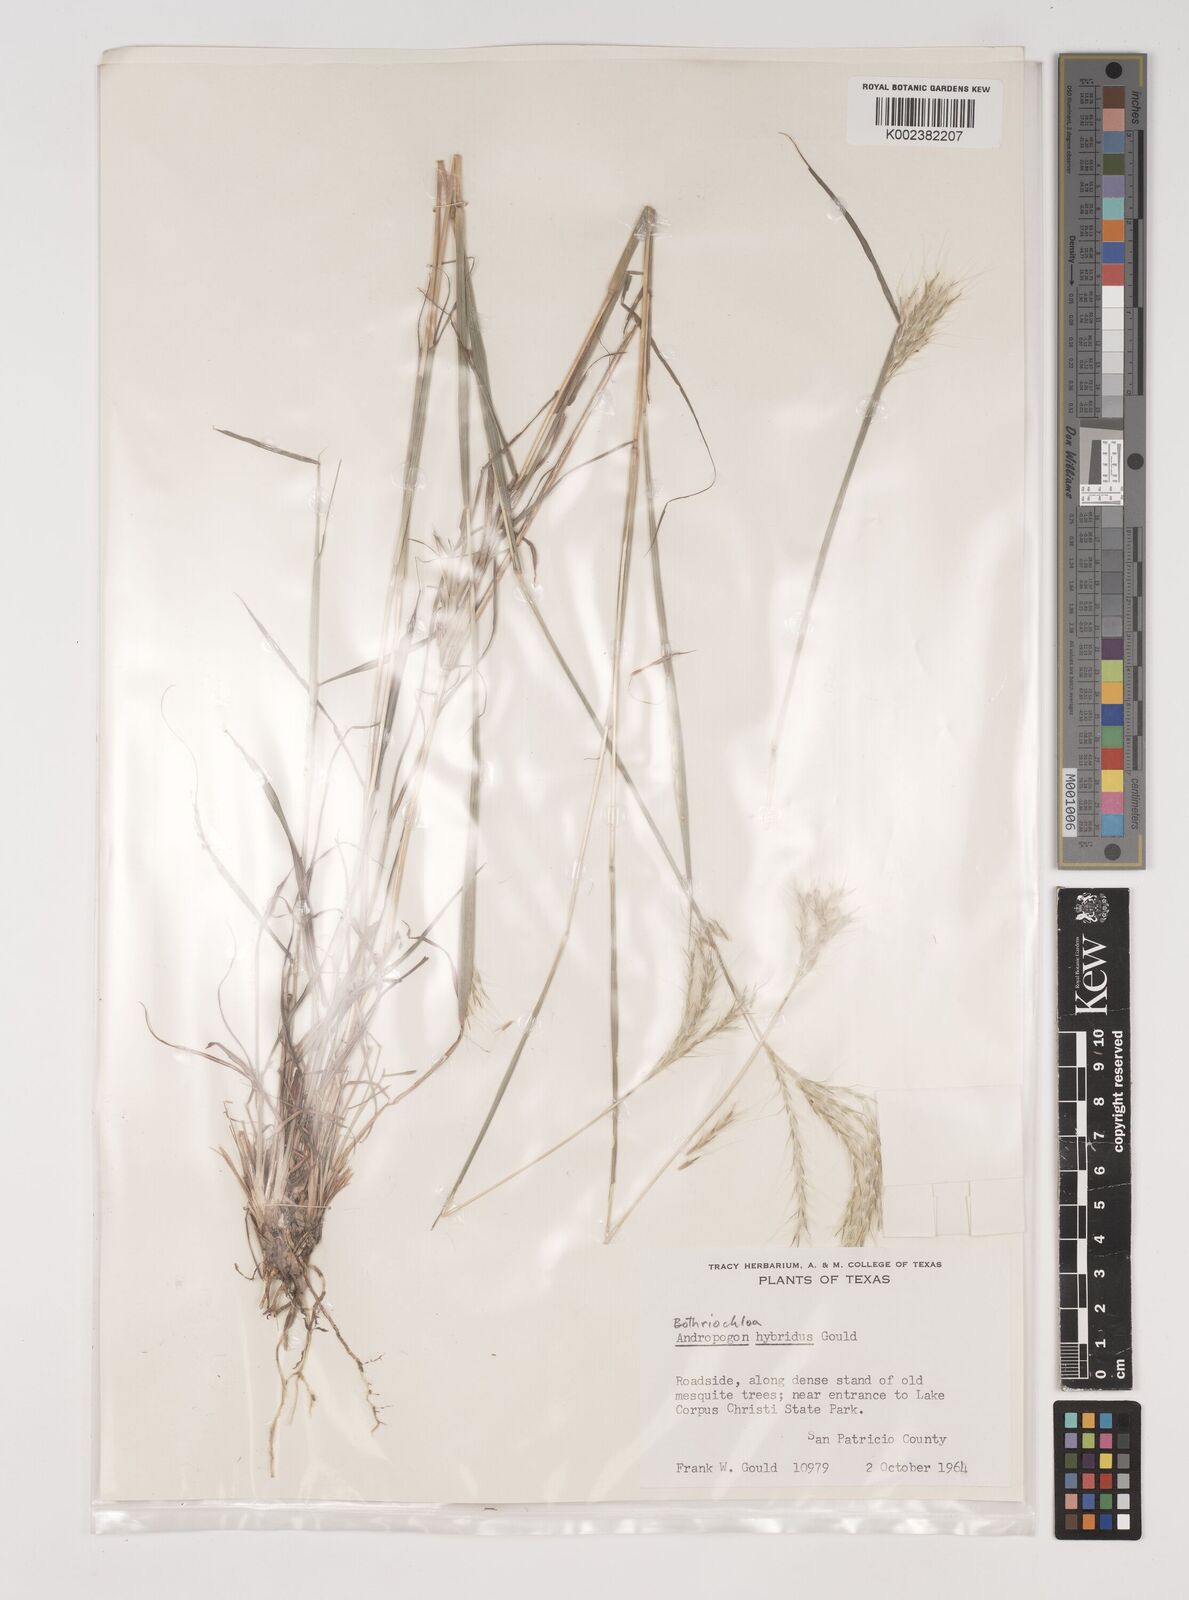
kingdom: Plantae
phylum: Tracheophyta
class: Liliopsida
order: Poales
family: Poaceae
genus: Bothriochloa
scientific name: Bothriochloa hybrida
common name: Hybrid bluestem
